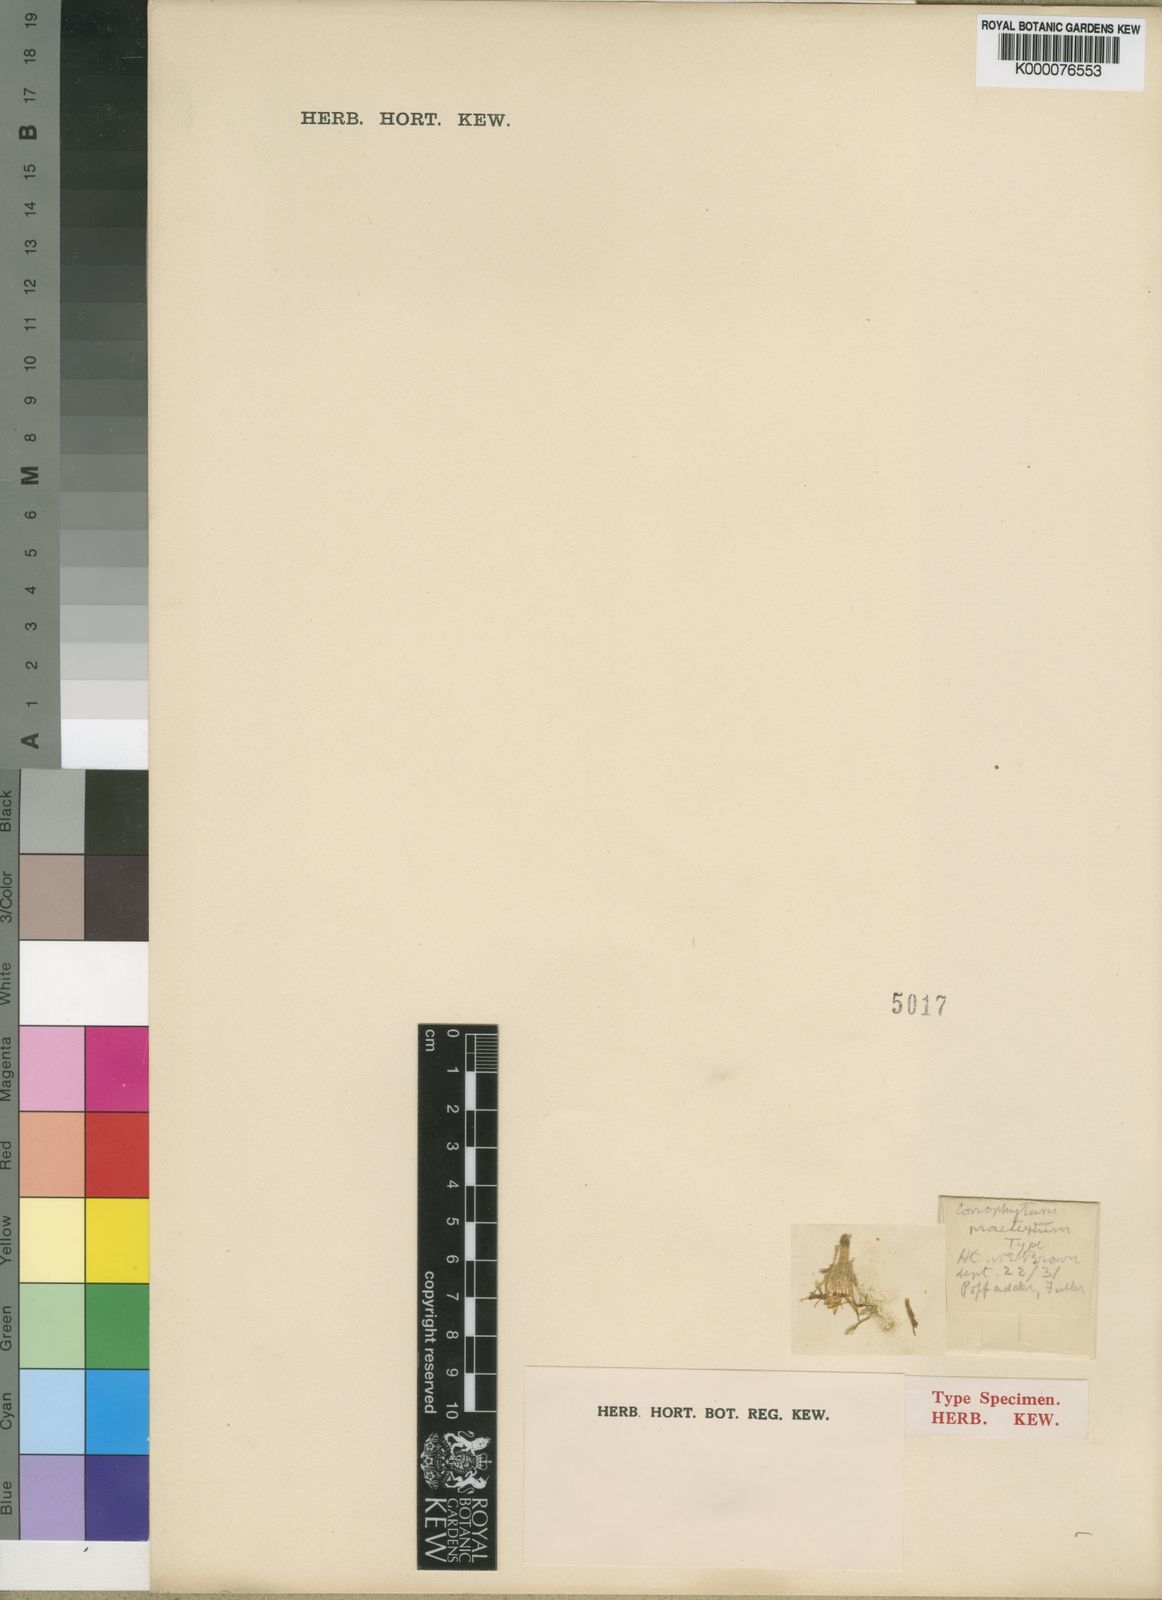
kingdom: Plantae
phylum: Tracheophyta
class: Magnoliopsida
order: Caryophyllales
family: Aizoaceae
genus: Conophytum
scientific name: Conophytum praesectum
